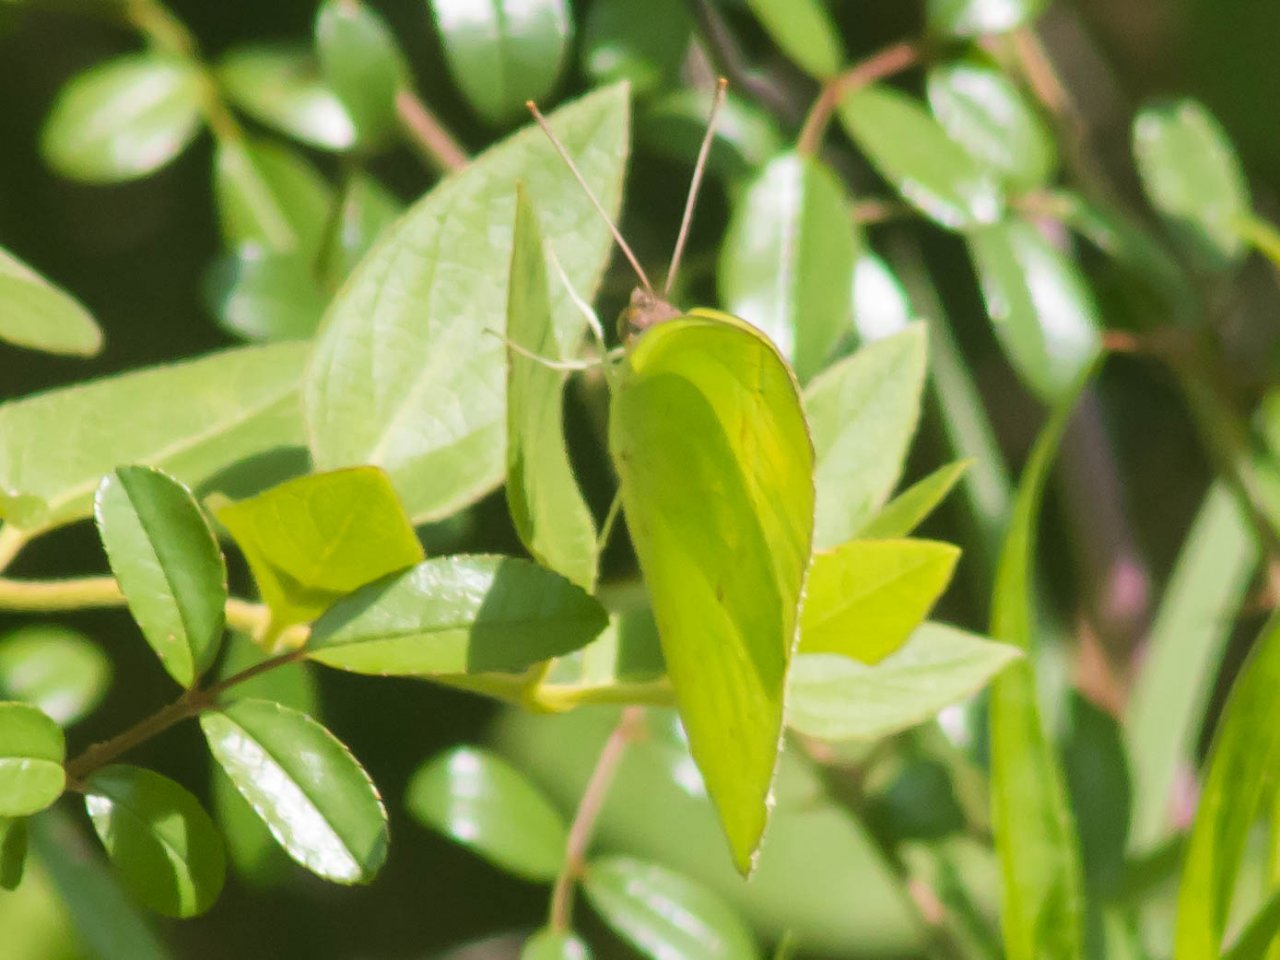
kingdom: Animalia
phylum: Arthropoda
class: Insecta
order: Lepidoptera
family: Pieridae
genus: Phoebis
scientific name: Phoebis sennae
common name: Cloudless Sulphur
